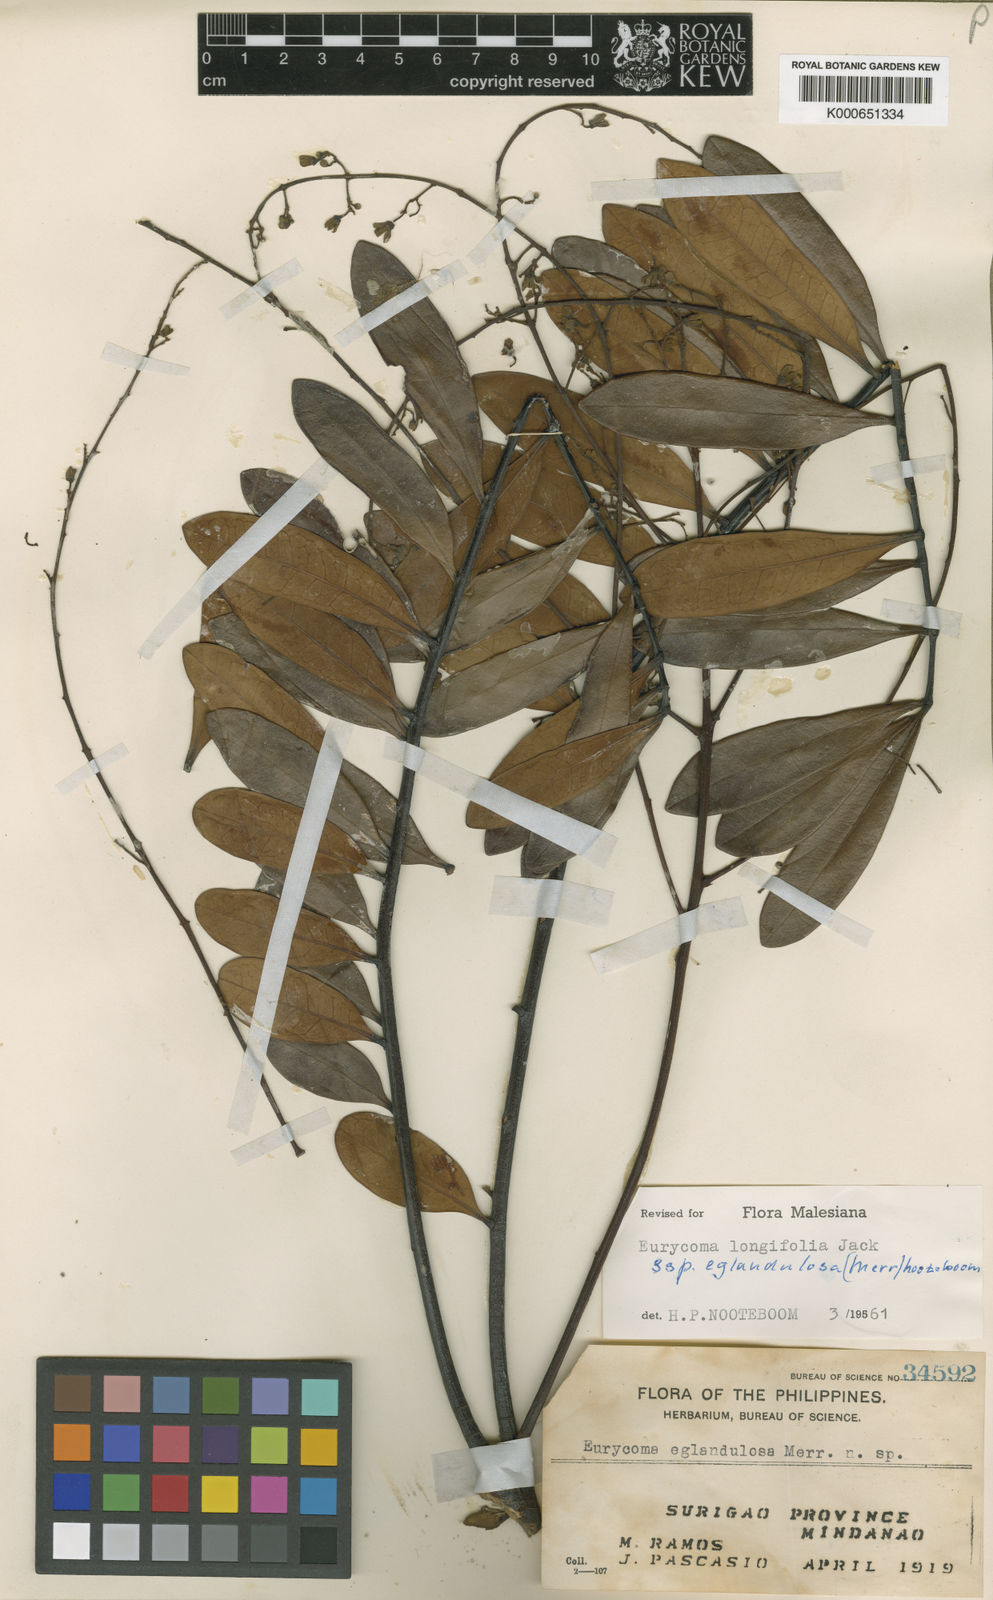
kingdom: Plantae
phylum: Tracheophyta
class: Magnoliopsida
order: Sapindales
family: Simaroubaceae
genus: Eurycoma
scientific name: Eurycoma longifolia
